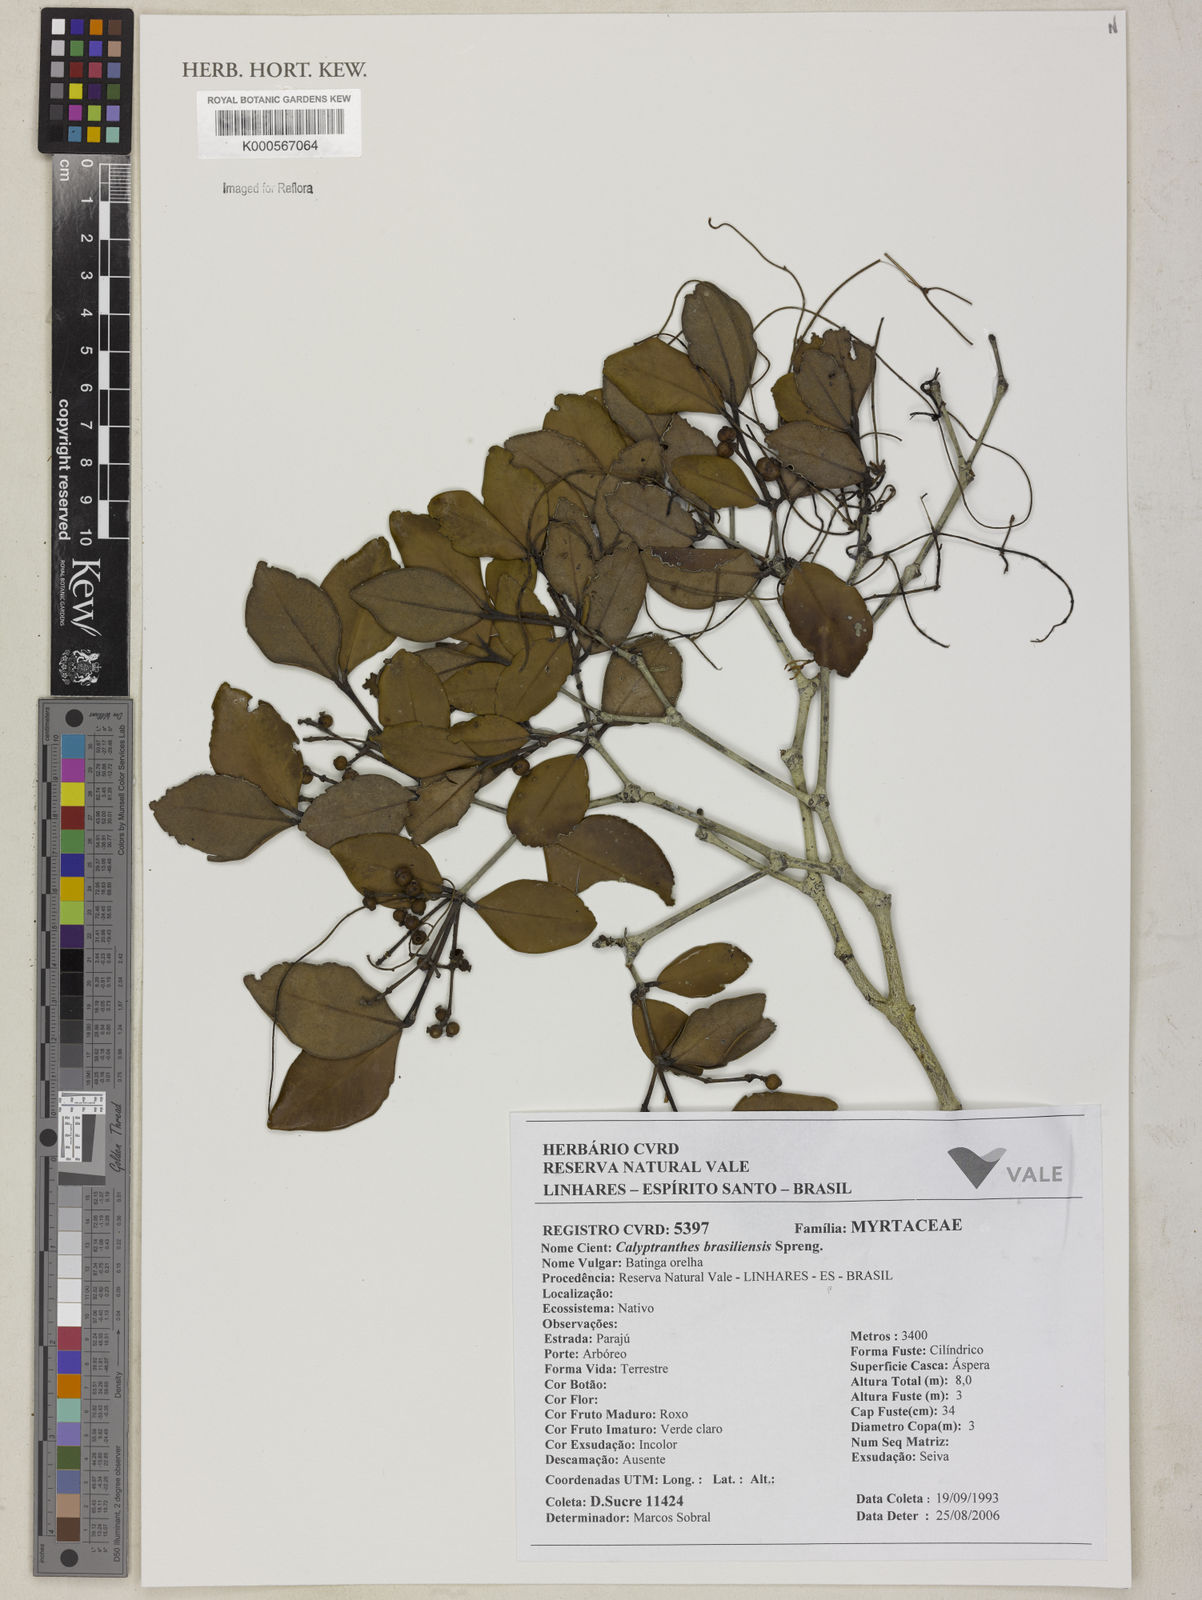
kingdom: Plantae
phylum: Tracheophyta
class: Magnoliopsida
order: Myrtales
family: Myrtaceae
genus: Myrcia
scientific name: Myrcia neobrasiliensis
